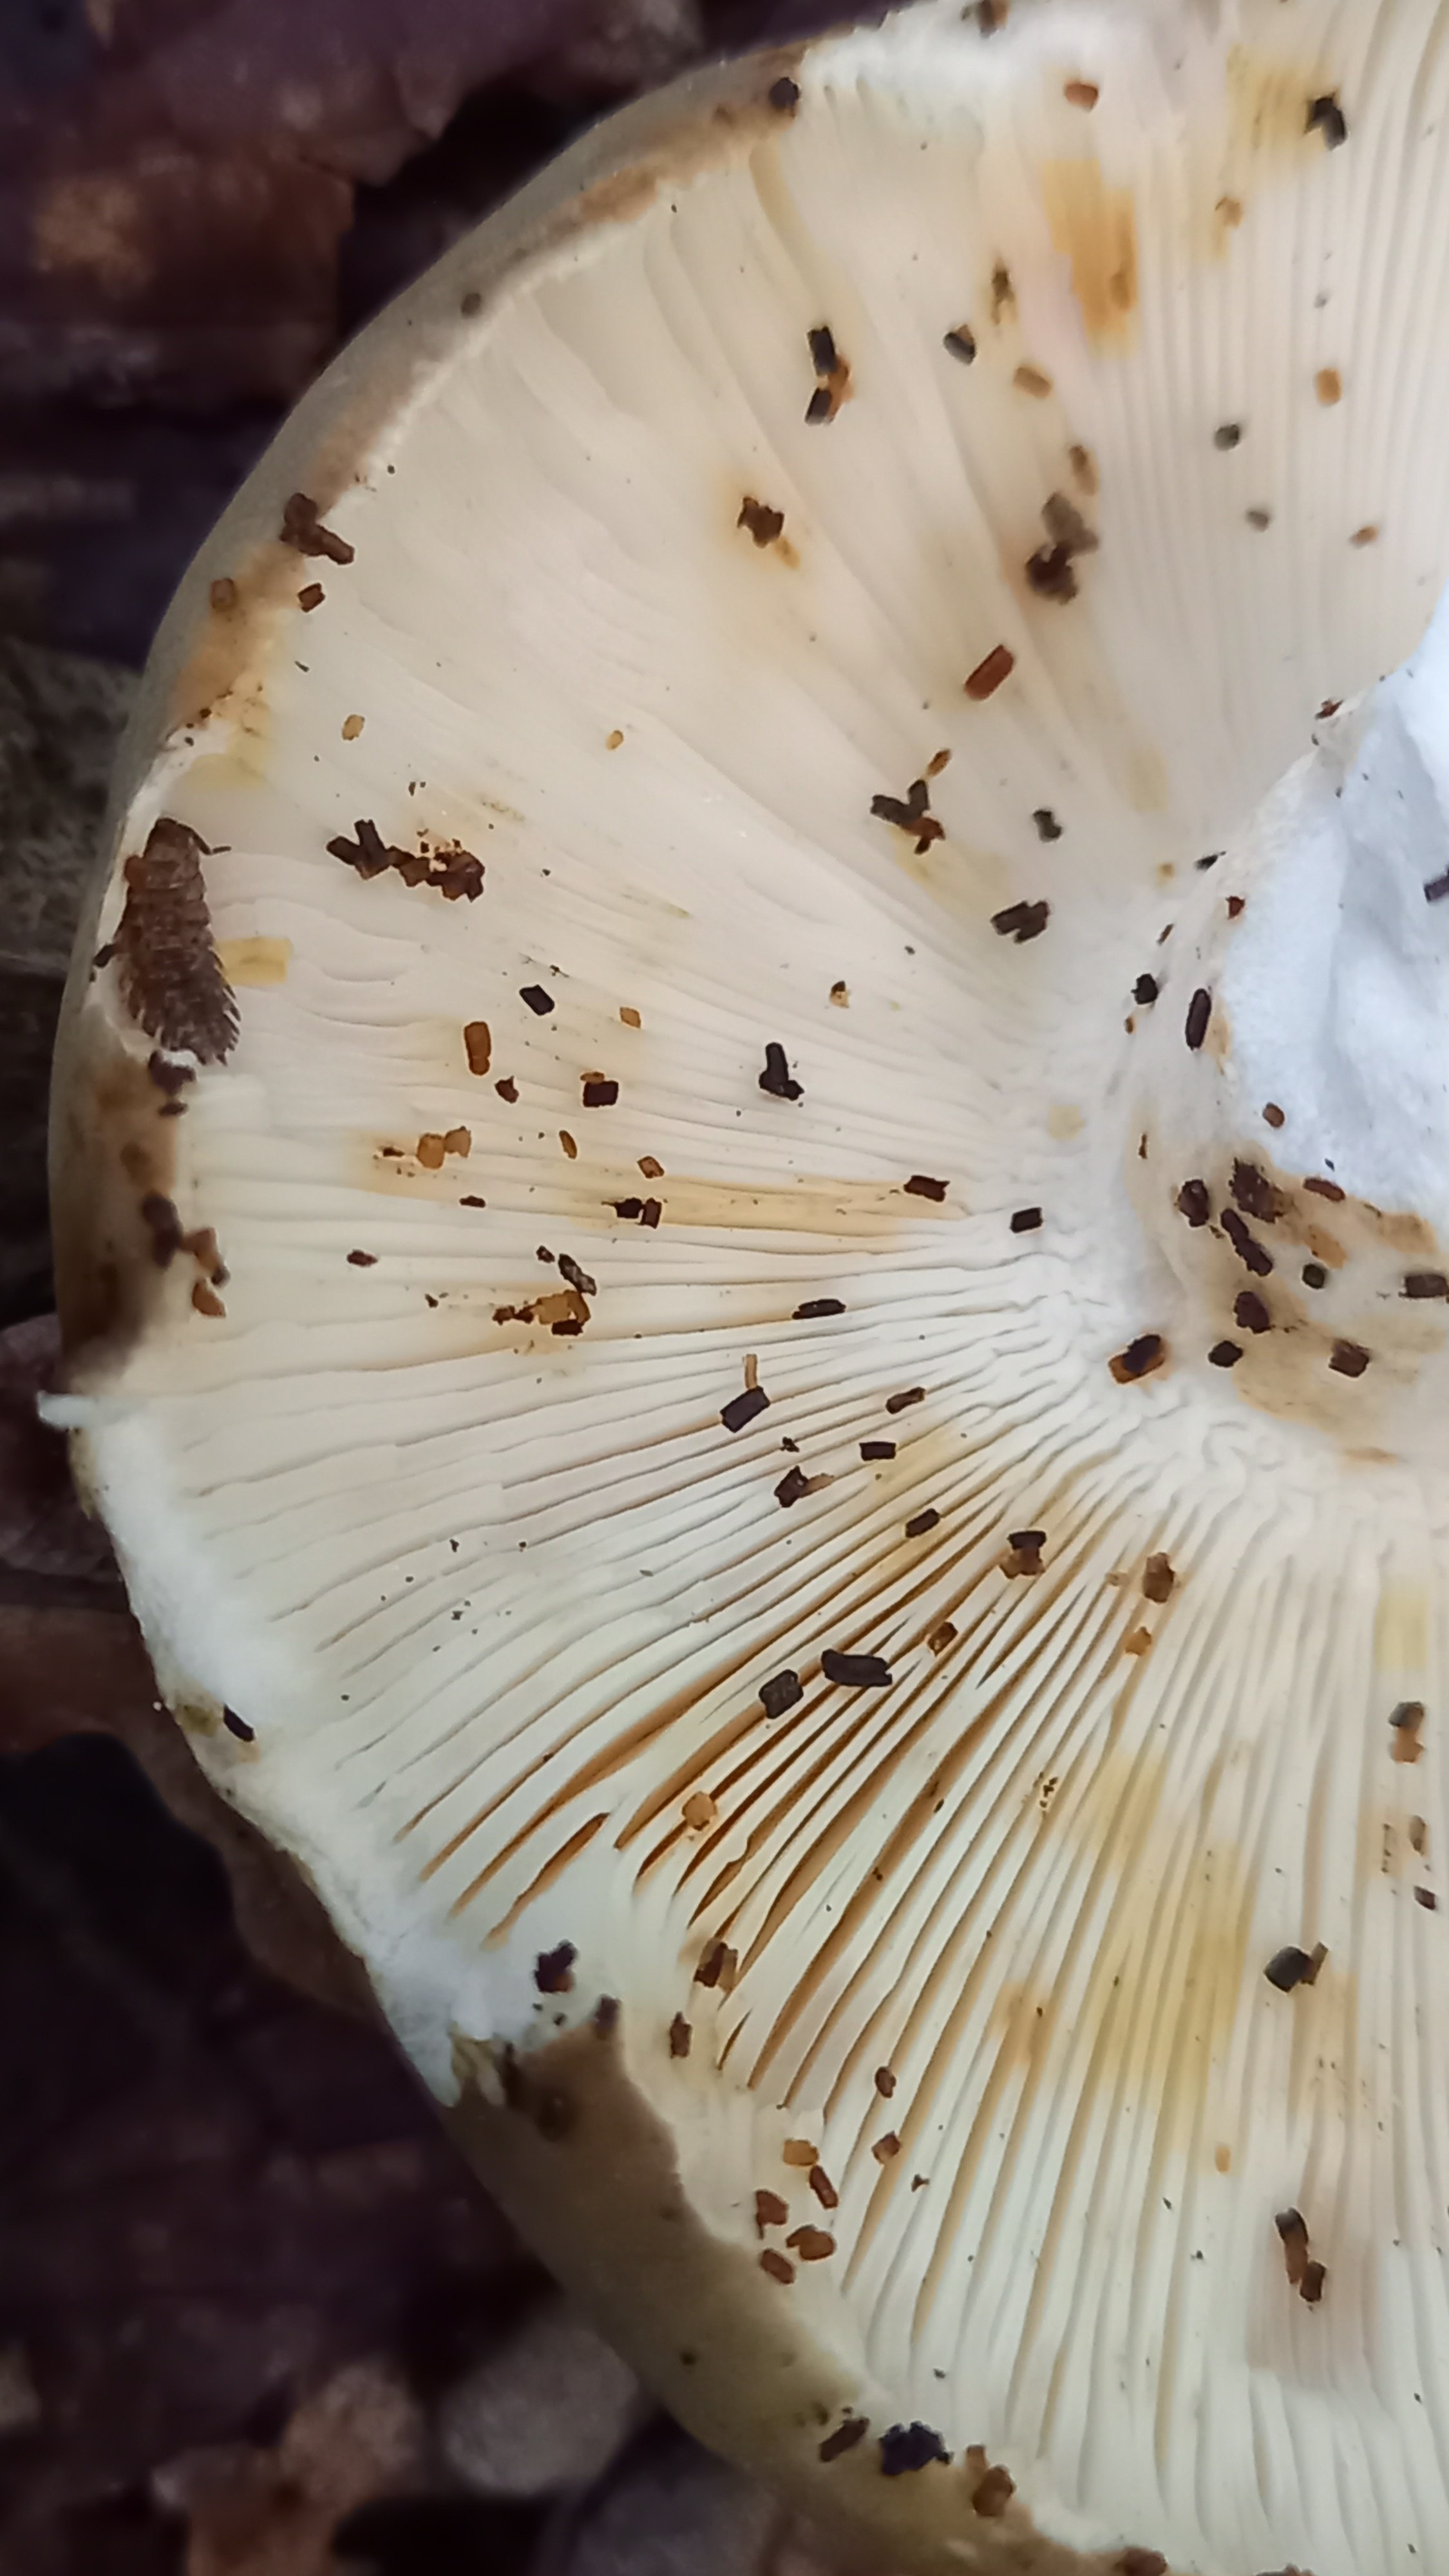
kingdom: Fungi
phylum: Basidiomycota
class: Agaricomycetes
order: Russulales
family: Russulaceae
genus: Russula
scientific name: Russula heterophylla
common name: gaffelbladet skørhat
